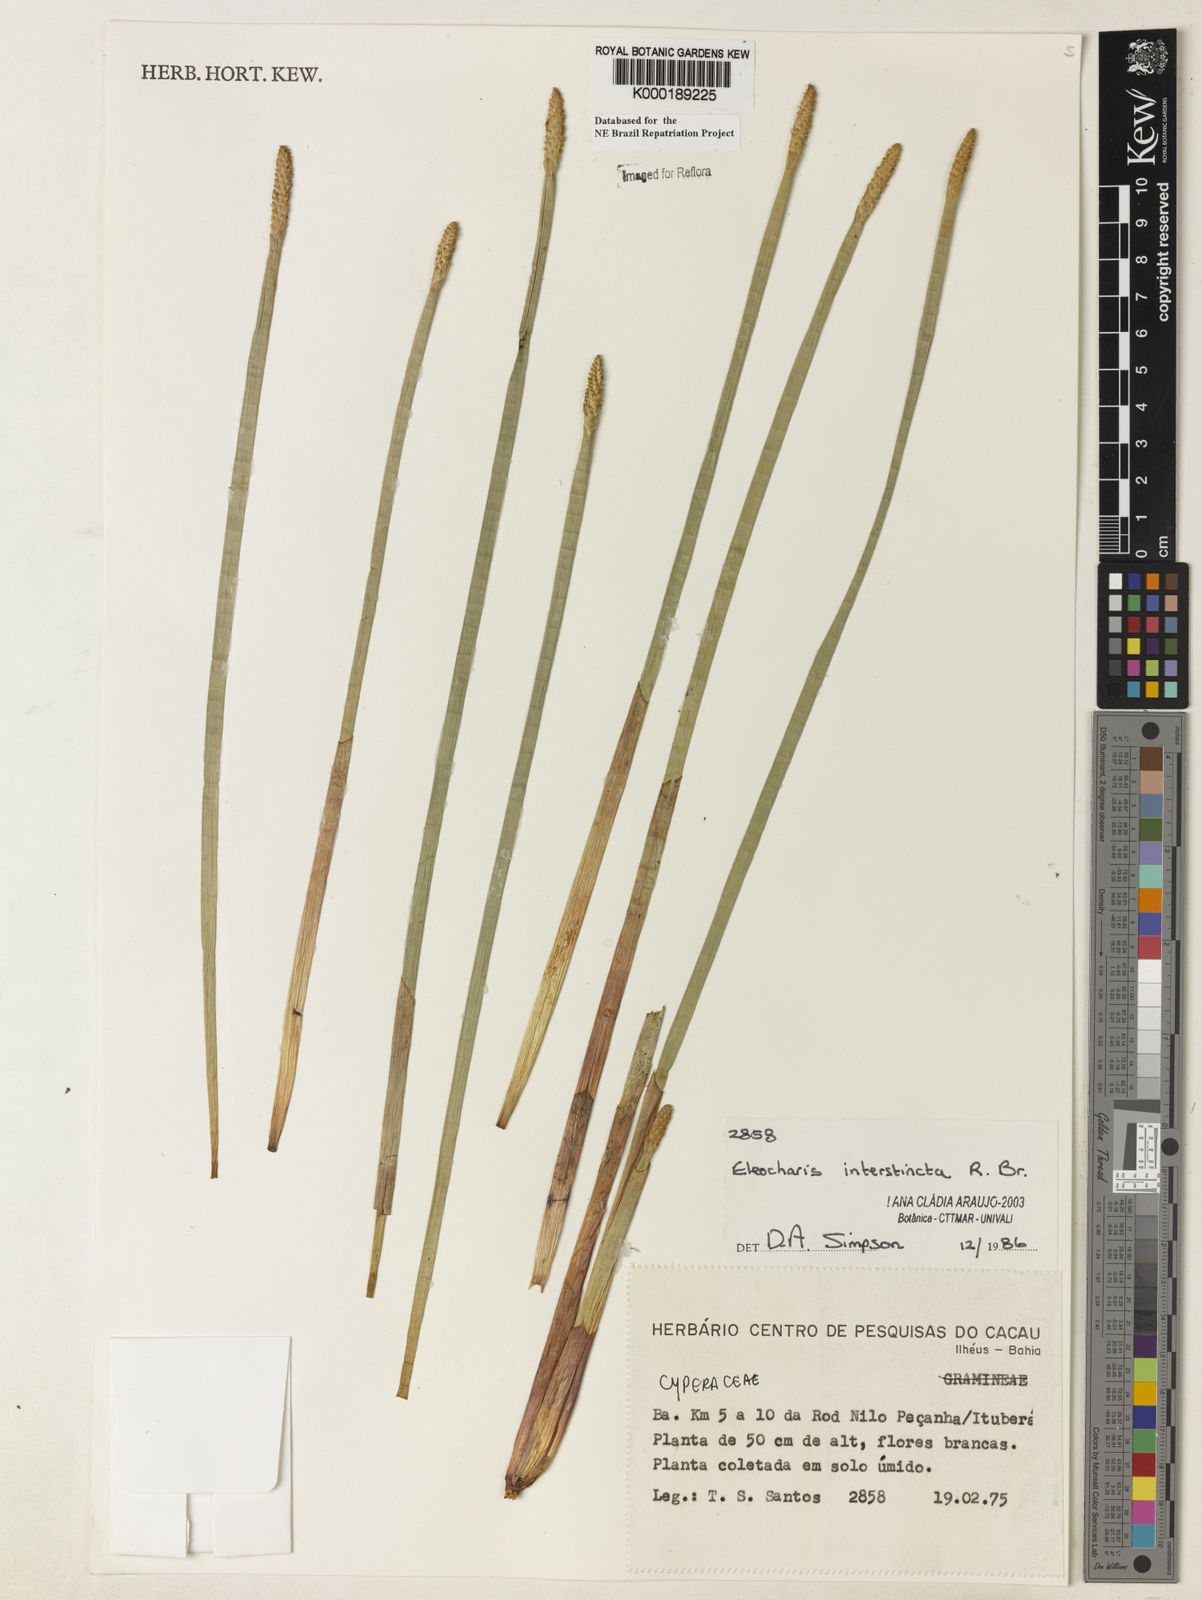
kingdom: Plantae
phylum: Tracheophyta
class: Liliopsida
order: Poales
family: Cyperaceae
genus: Eleocharis
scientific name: Eleocharis interstincta
